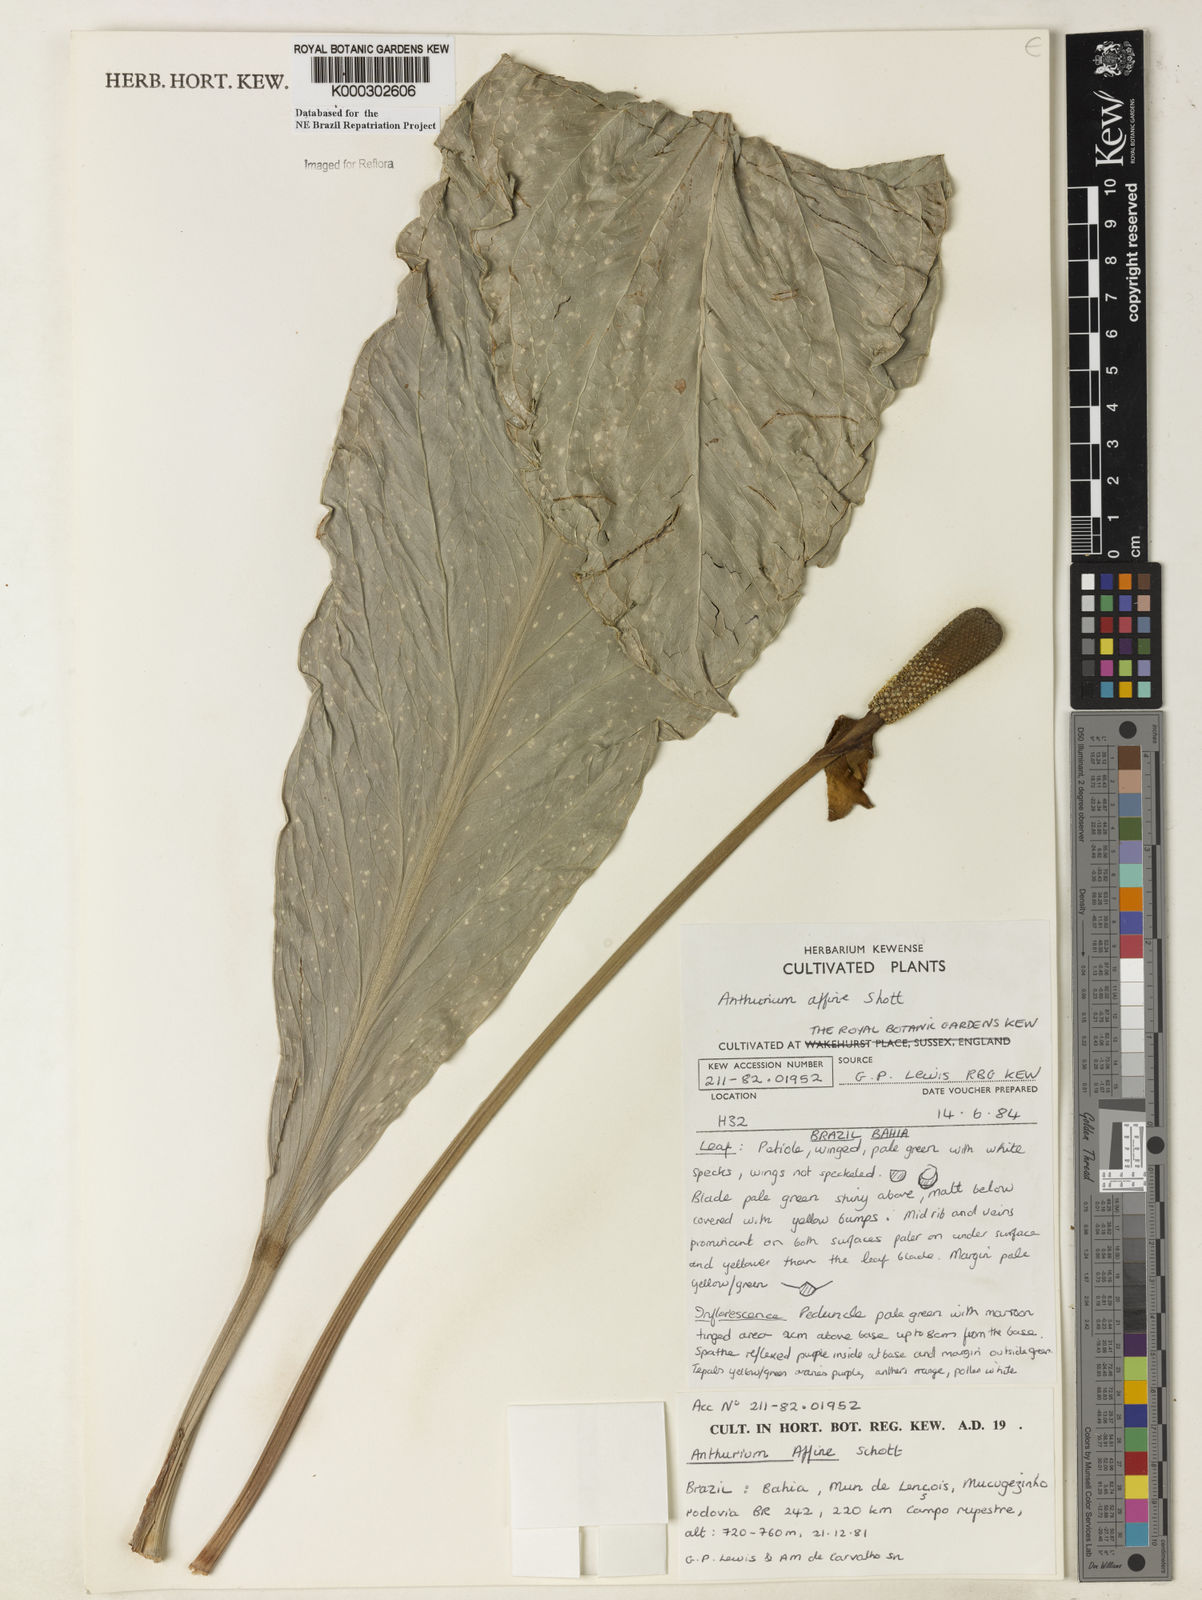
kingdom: Plantae
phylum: Tracheophyta
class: Liliopsida
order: Alismatales
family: Araceae
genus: Anthurium
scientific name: Anthurium affine
